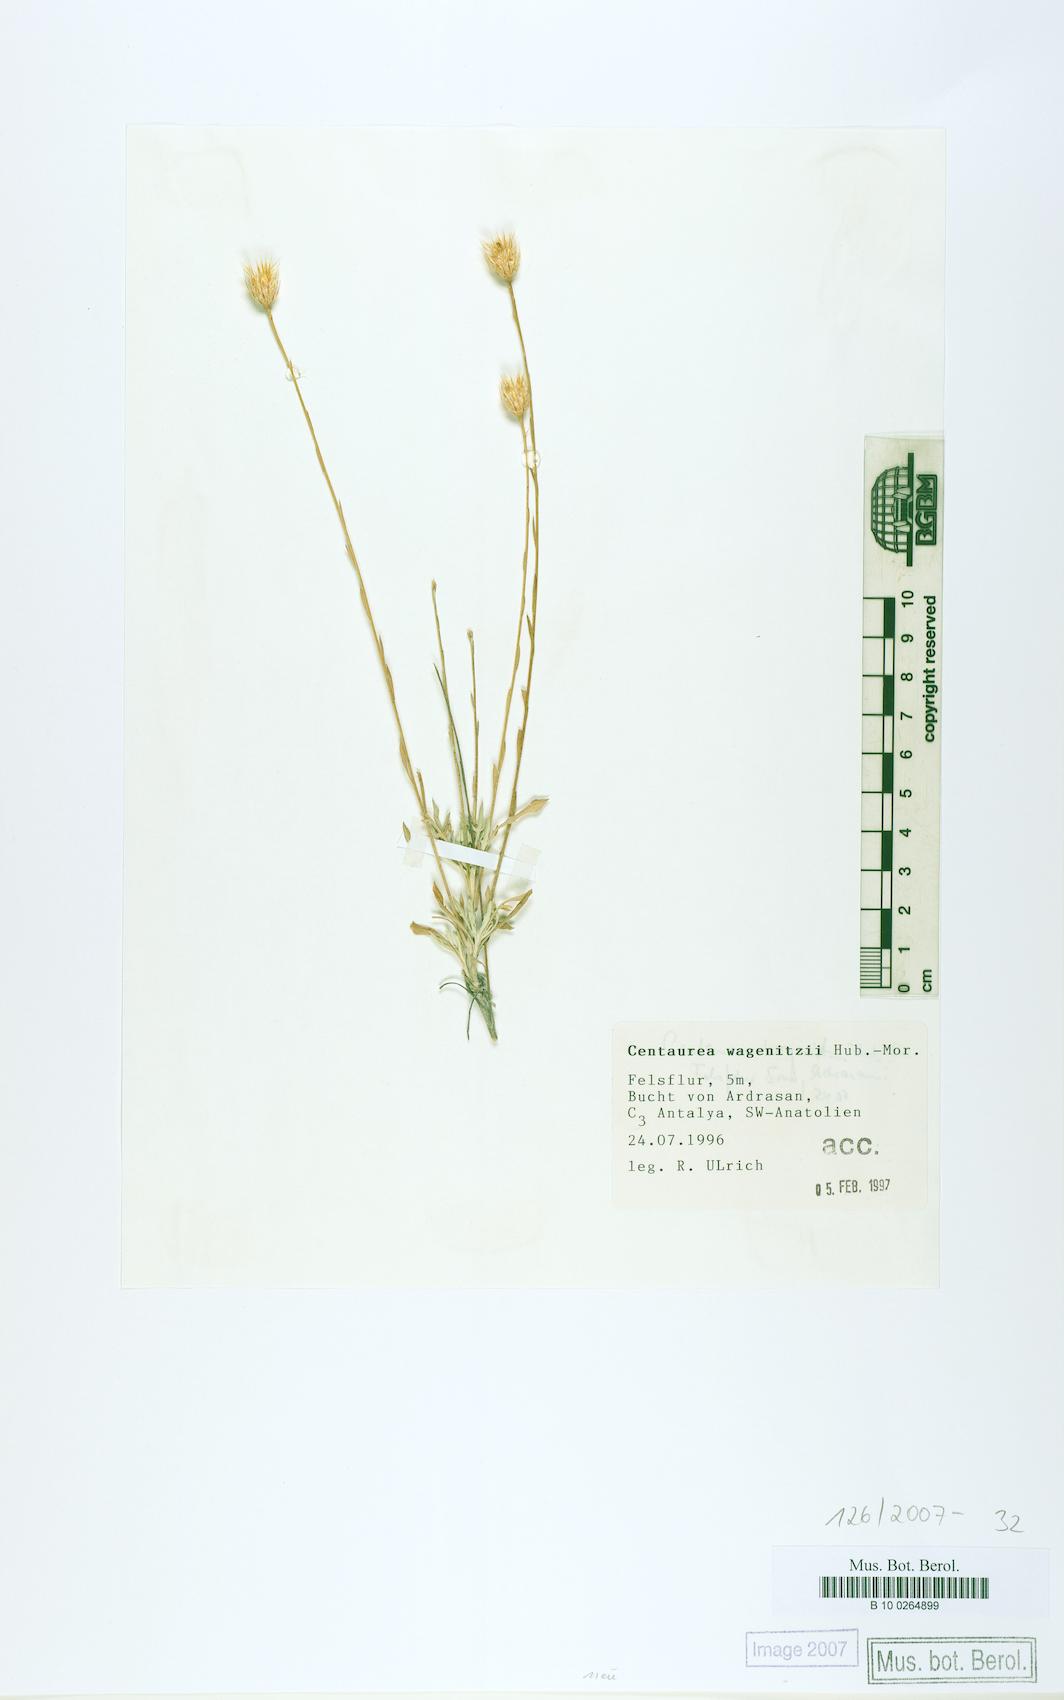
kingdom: Plantae
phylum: Tracheophyta
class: Magnoliopsida
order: Asterales
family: Asteraceae
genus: Centaurea
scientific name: Centaurea wagenitzii
